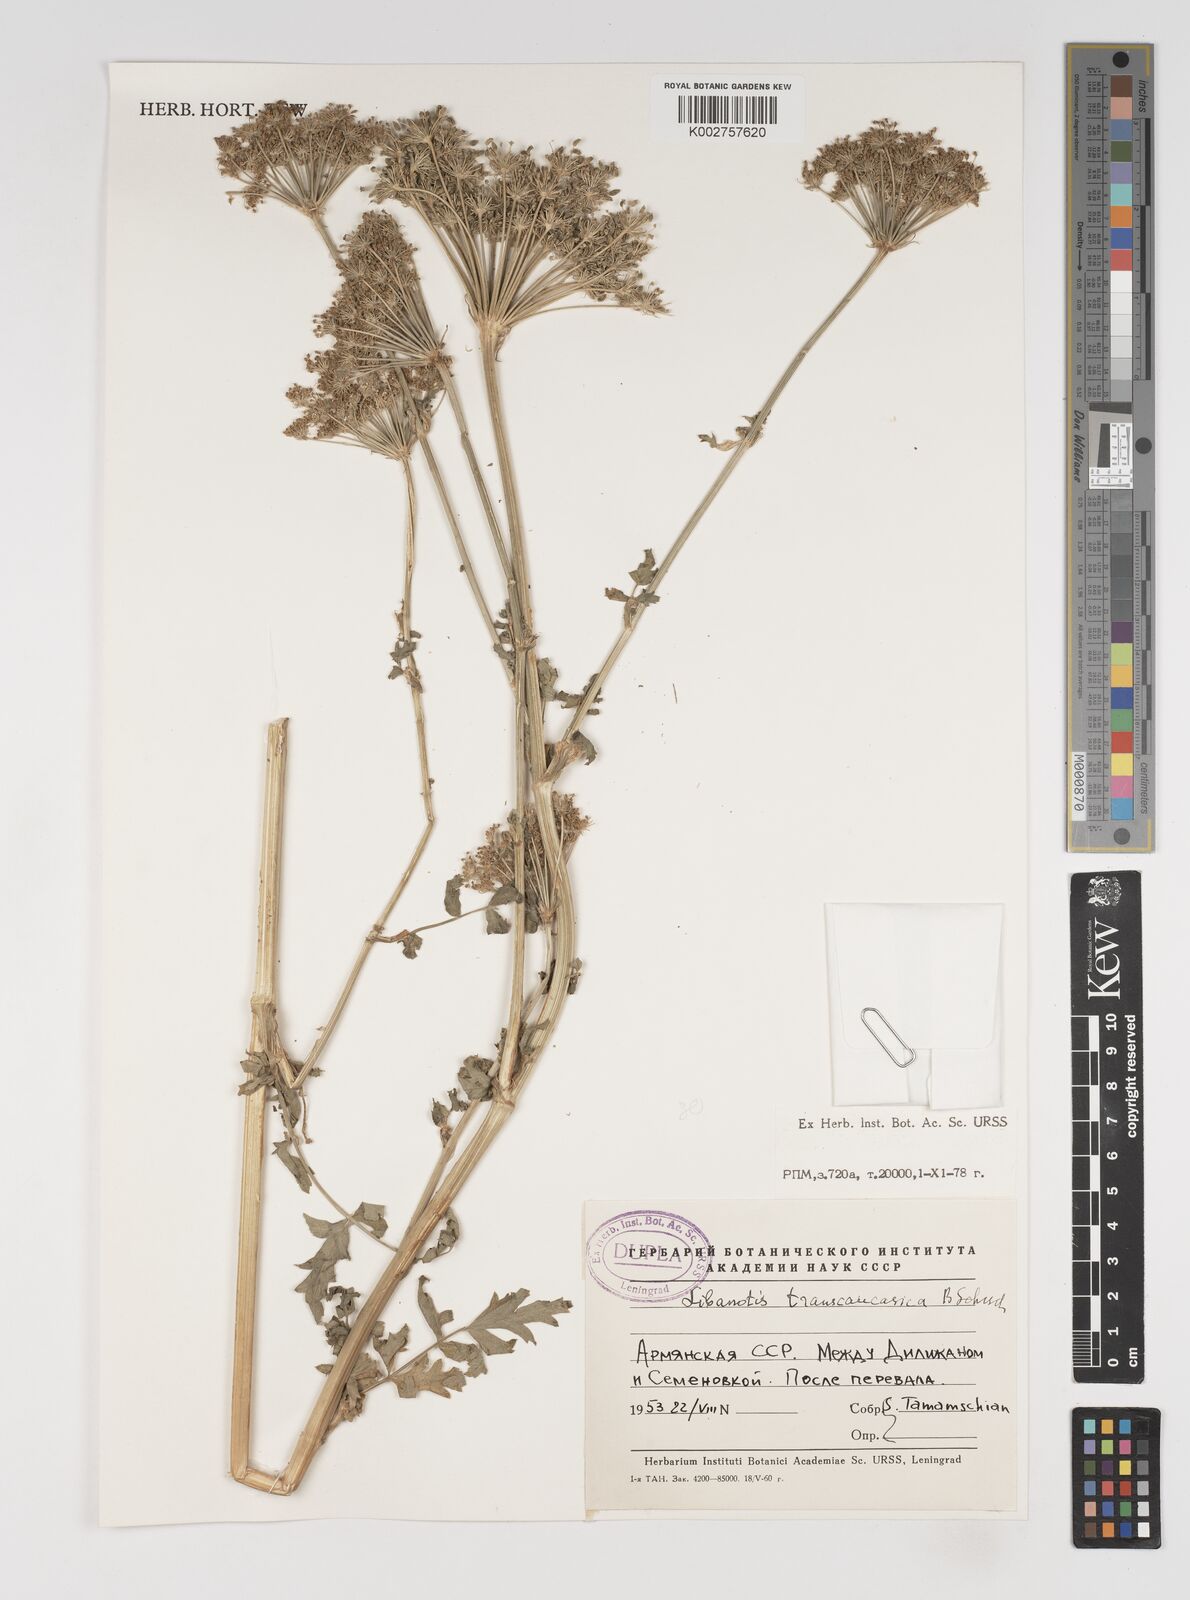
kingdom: Plantae
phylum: Tracheophyta
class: Magnoliopsida
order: Apiales
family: Apiaceae
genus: Seseli
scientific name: Seseli transcaucasicum
